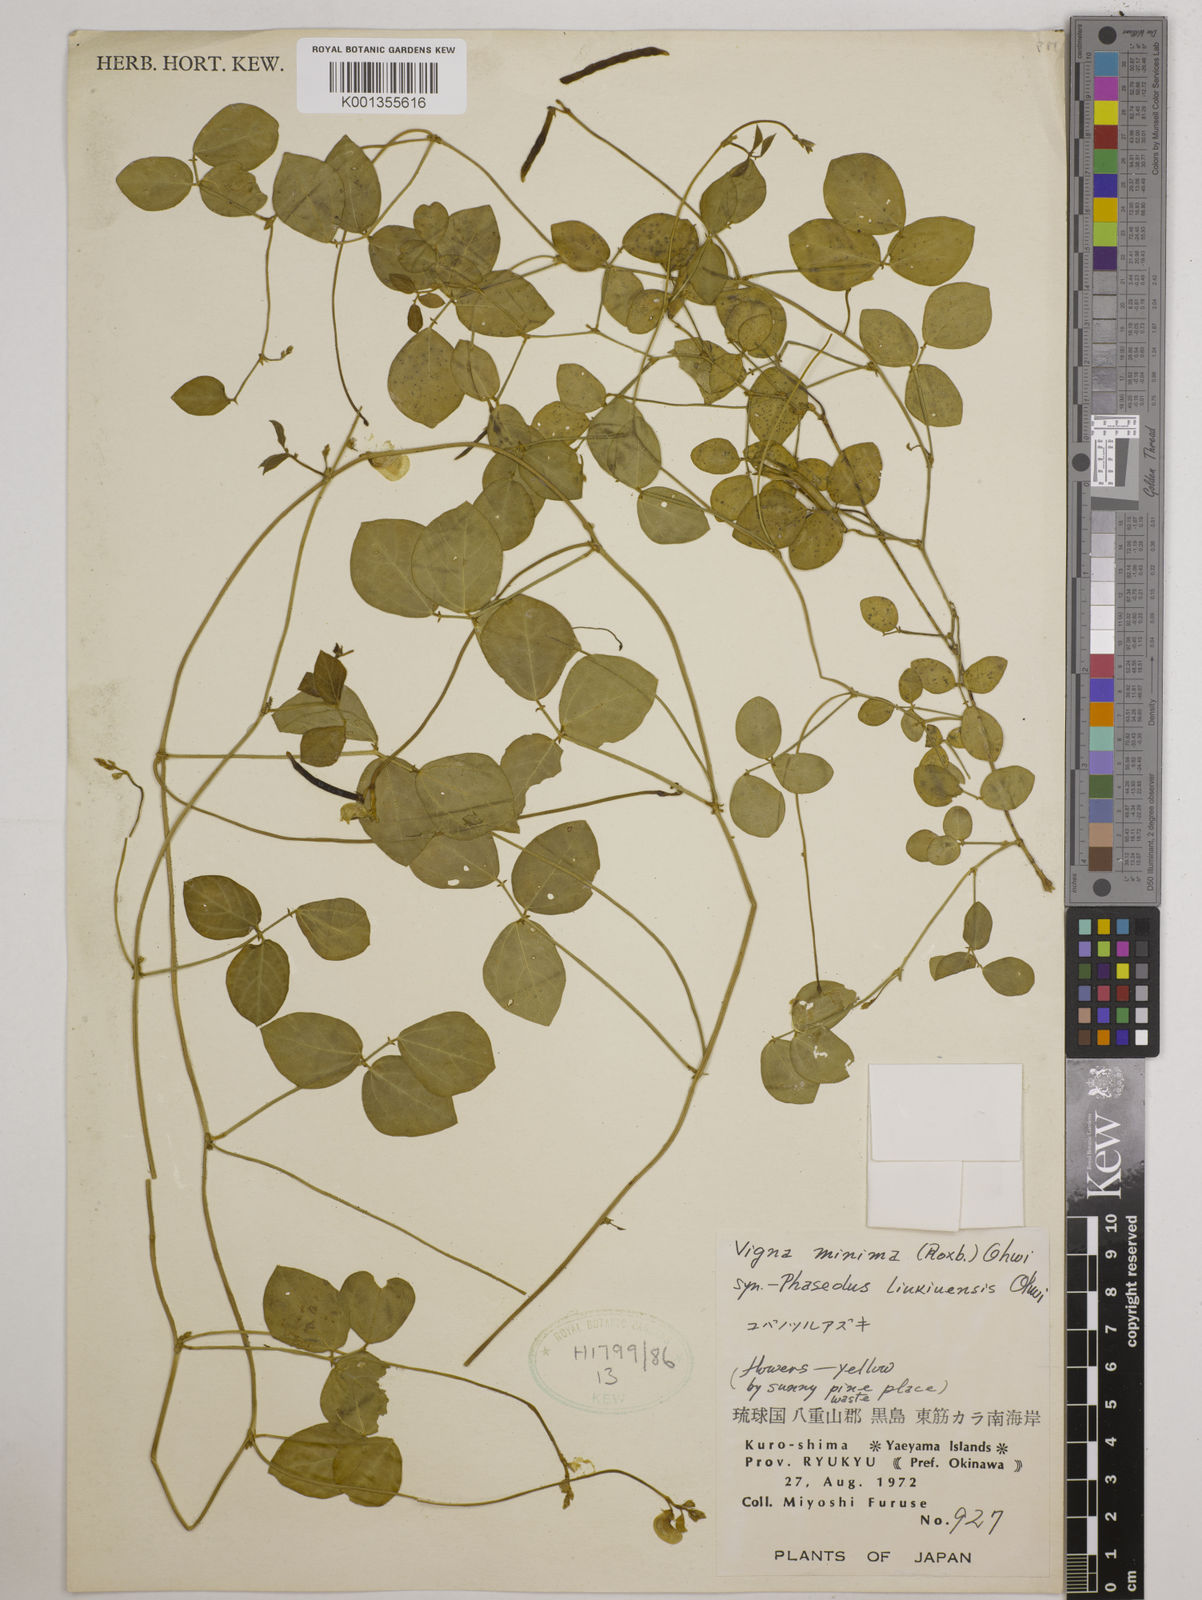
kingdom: Plantae
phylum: Tracheophyta
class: Magnoliopsida
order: Fabales
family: Fabaceae
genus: Vigna
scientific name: Vigna minima
